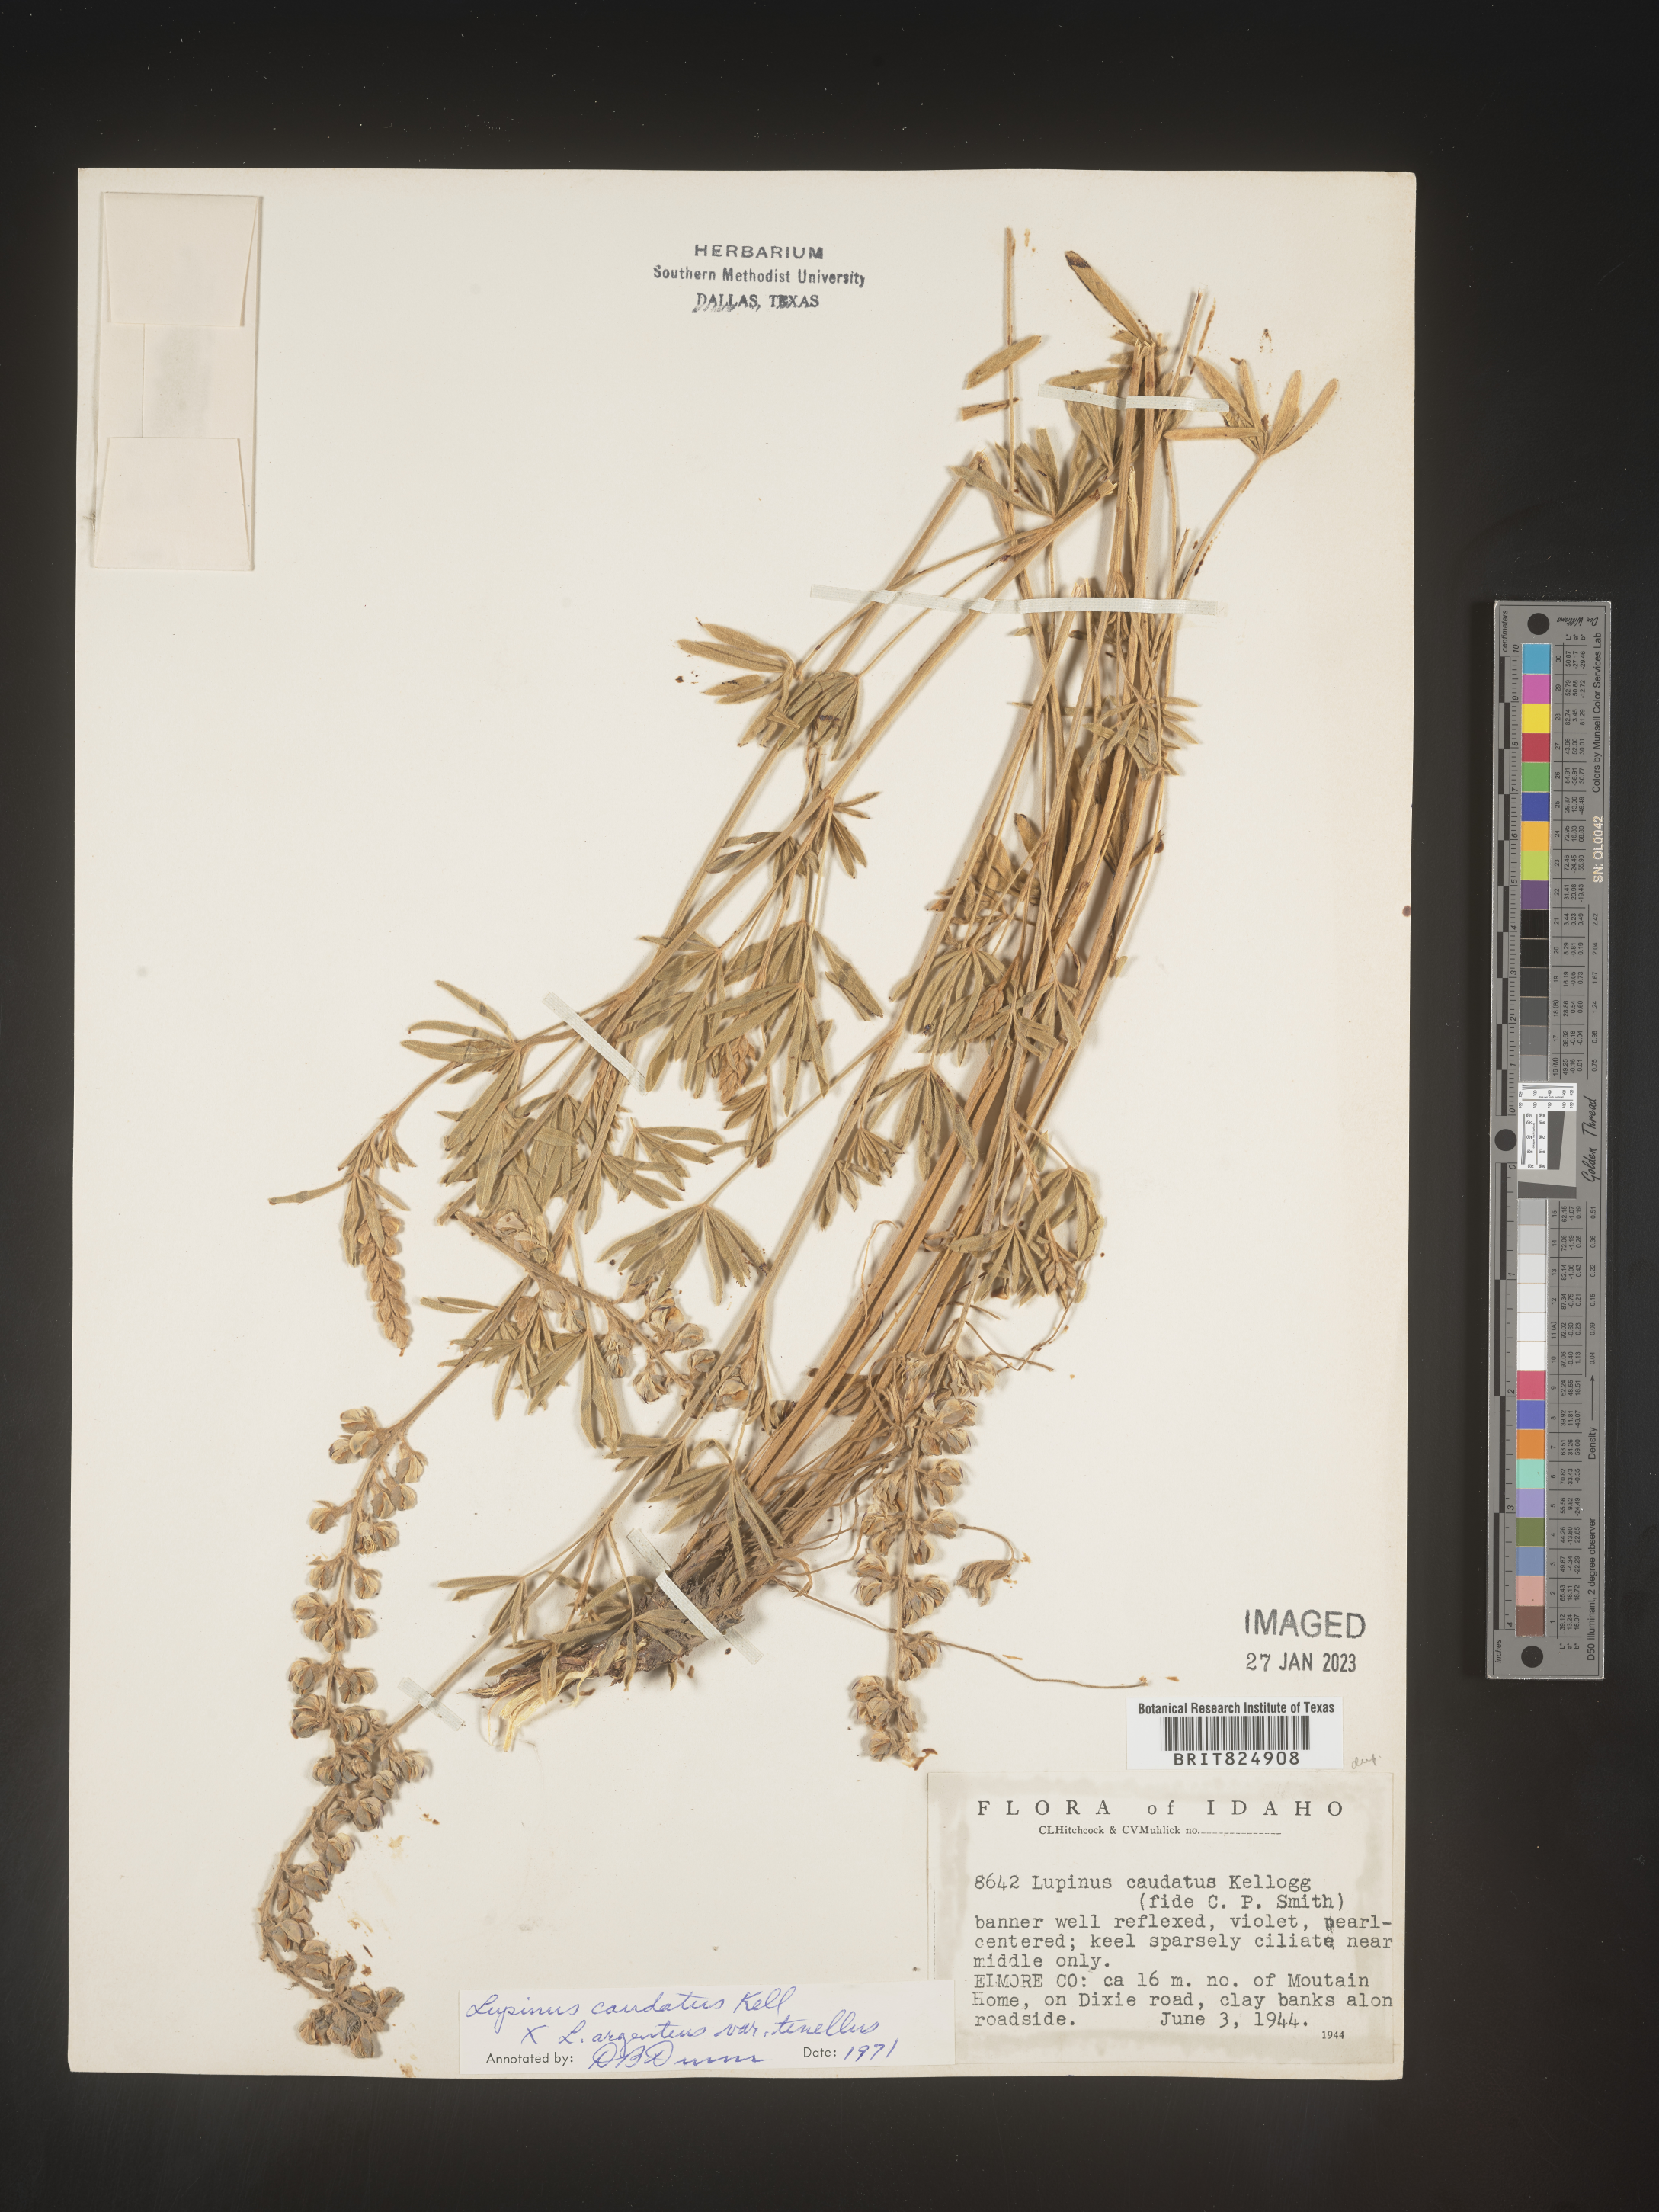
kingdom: Plantae
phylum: Tracheophyta
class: Magnoliopsida
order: Fabales
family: Fabaceae
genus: Lupinus
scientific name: Lupinus caudatus
